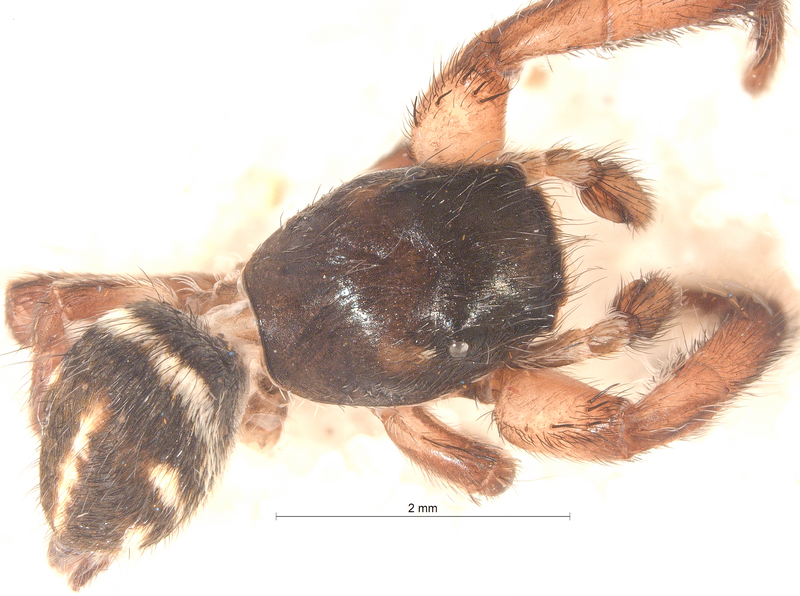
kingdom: Animalia
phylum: Arthropoda
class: Arachnida
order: Araneae
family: Salticidae
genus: Pellenes
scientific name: Pellenes nigrociliatus
